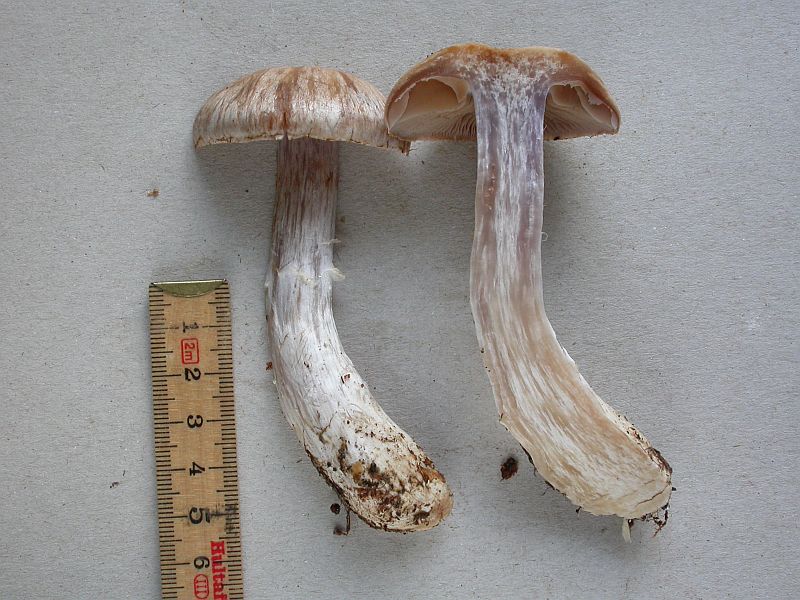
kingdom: Fungi
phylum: Basidiomycota
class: Agaricomycetes
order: Agaricales
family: Cortinariaceae
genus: Cortinarius
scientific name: Cortinarius quarciticus
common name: kvarts-slørhat
